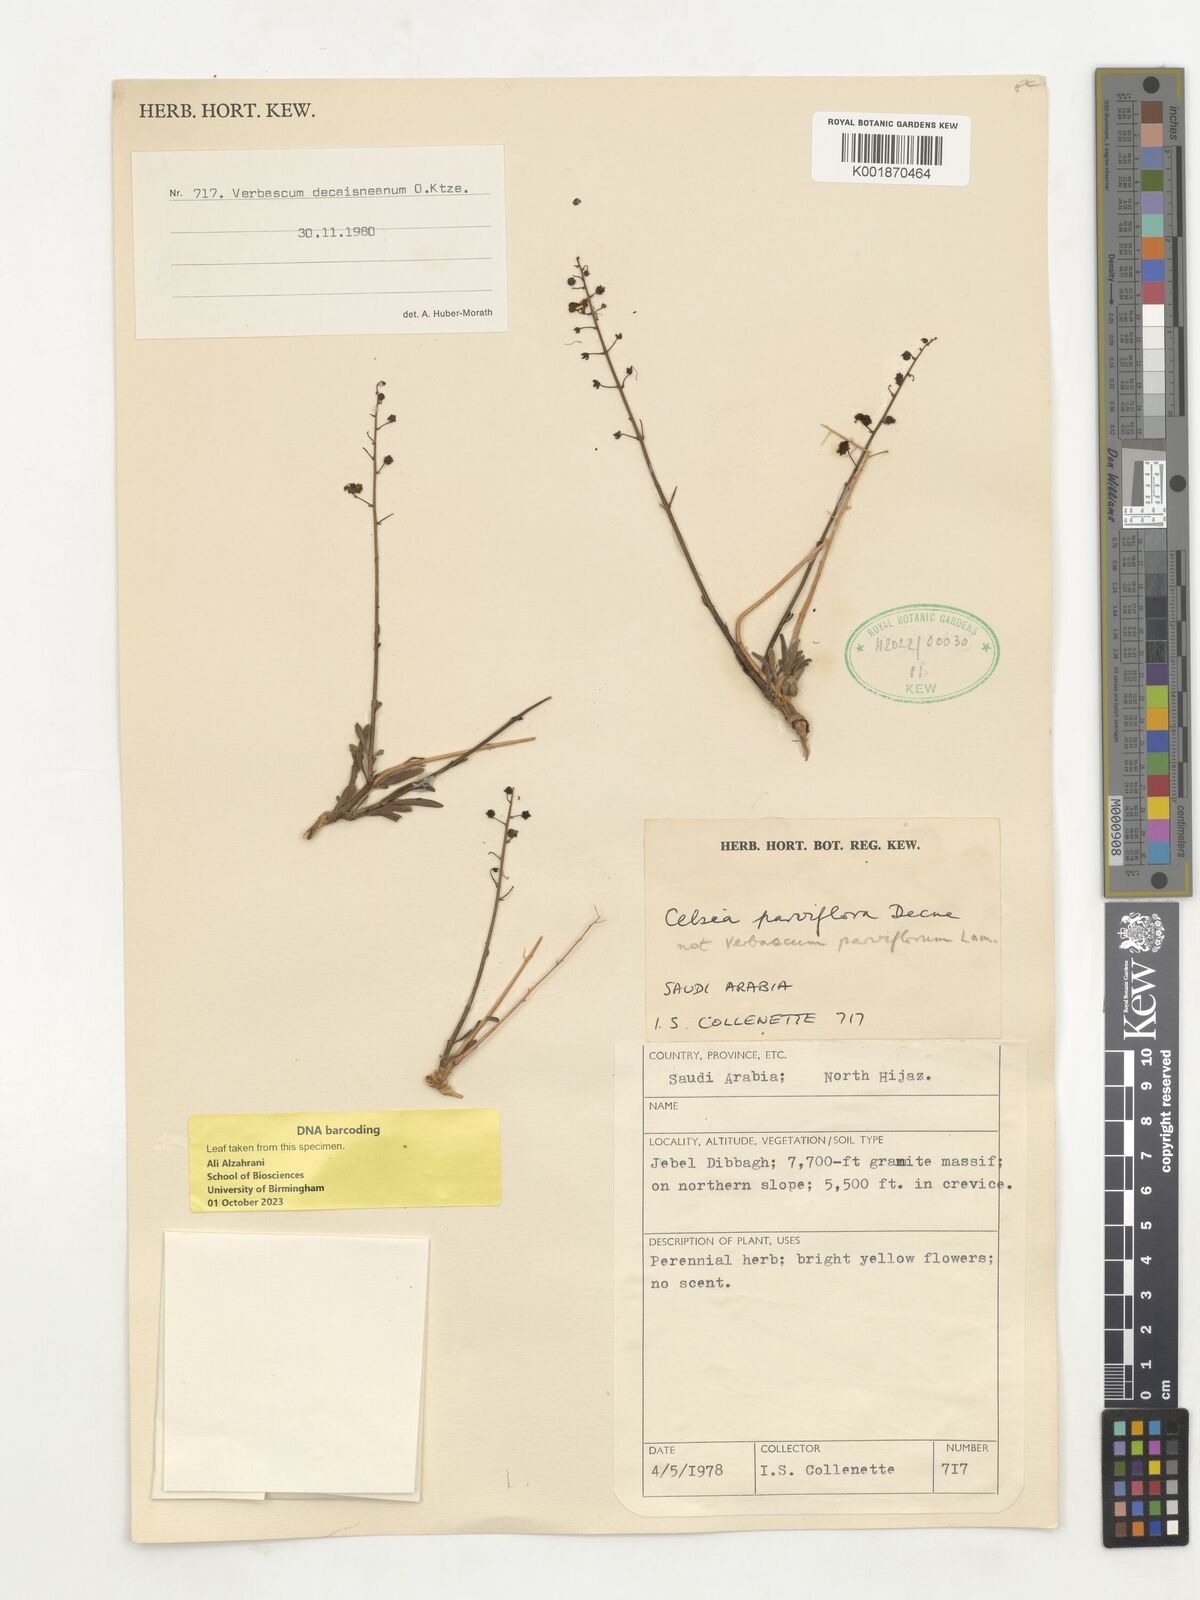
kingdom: Plantae
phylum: Tracheophyta
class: Magnoliopsida
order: Lamiales
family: Scrophulariaceae
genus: Verbascum
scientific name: Verbascum decaisneanum
